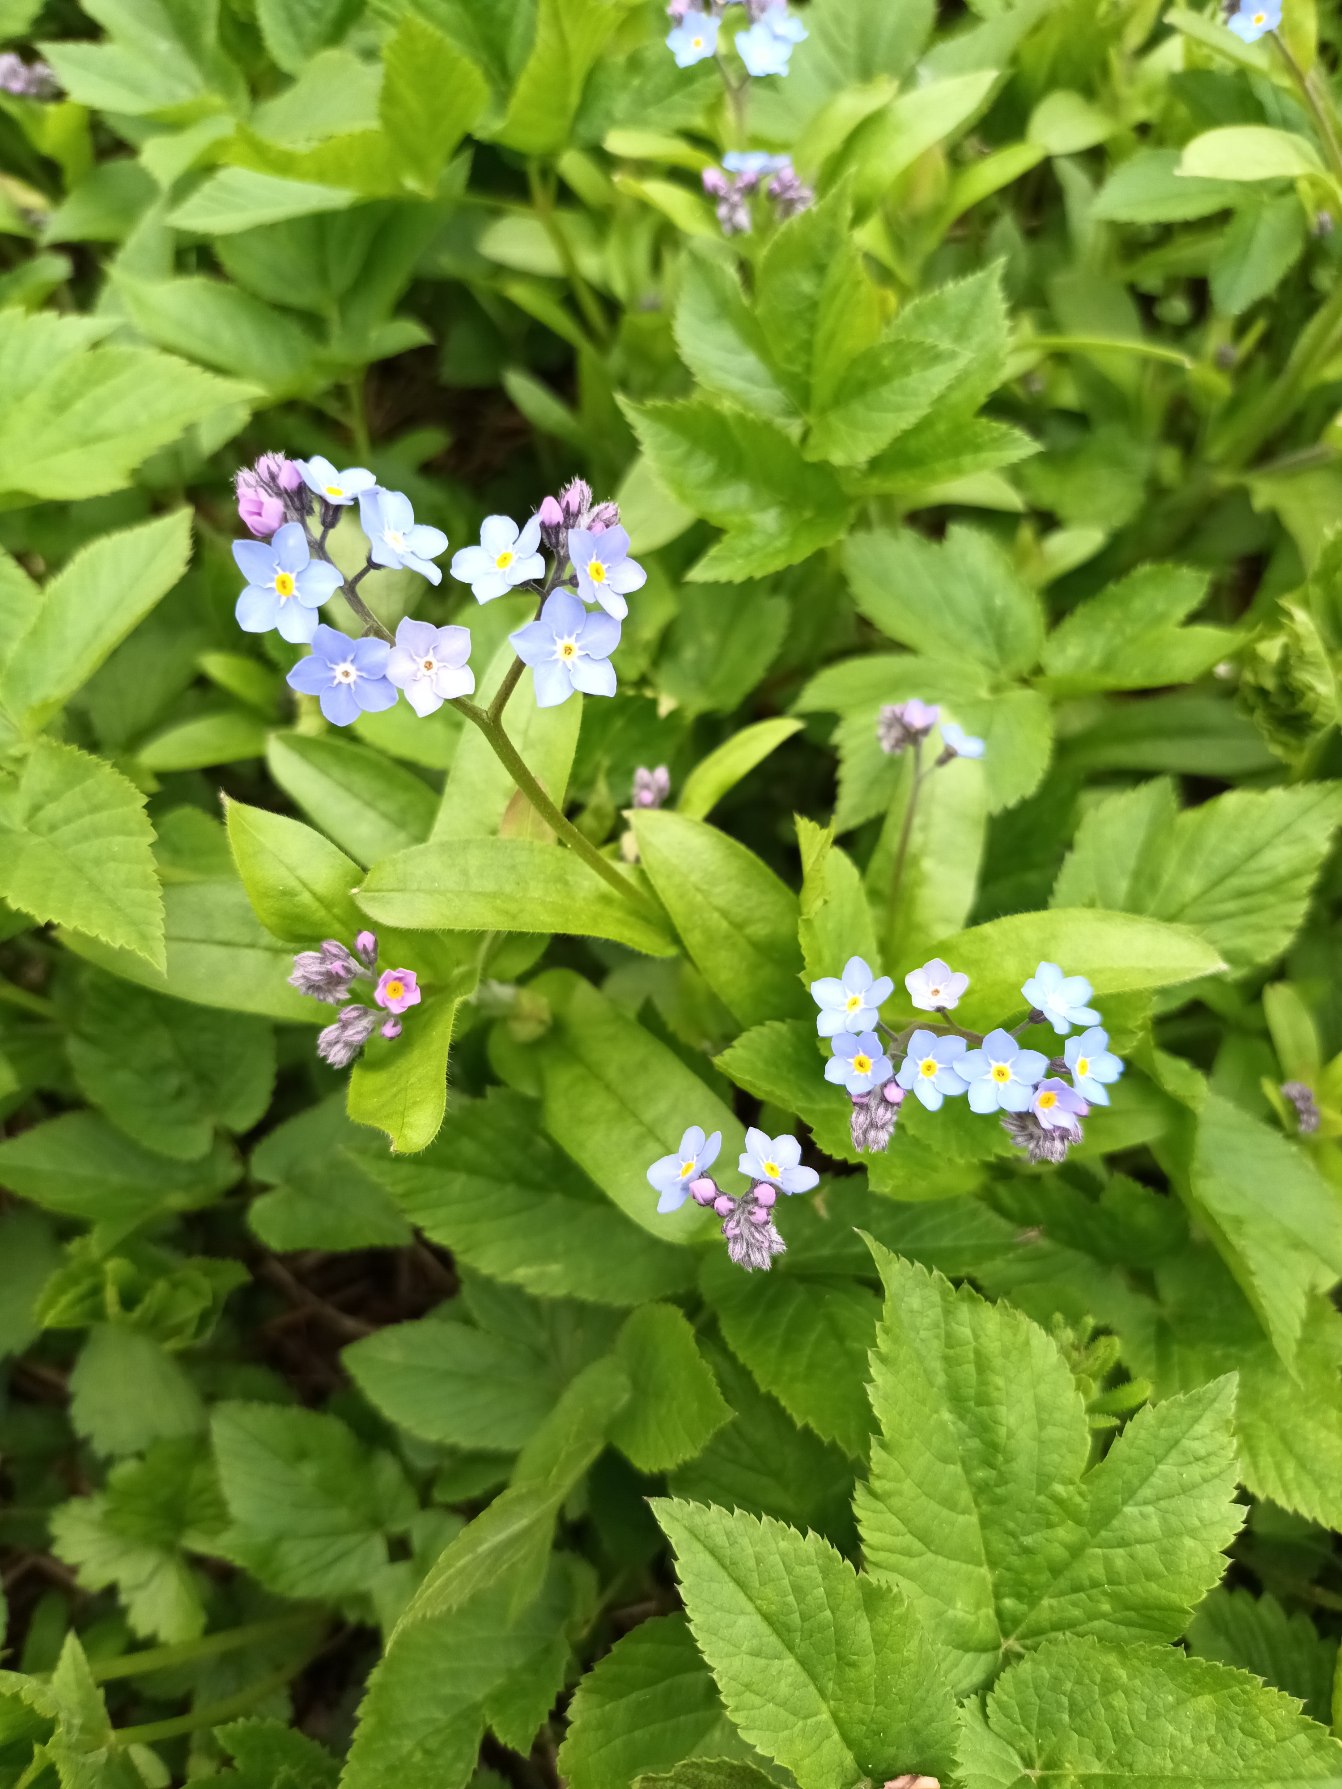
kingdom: Plantae
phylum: Tracheophyta
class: Magnoliopsida
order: Boraginales
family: Boraginaceae
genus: Myosotis
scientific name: Myosotis sylvatica
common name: Skov-forglemmigej
